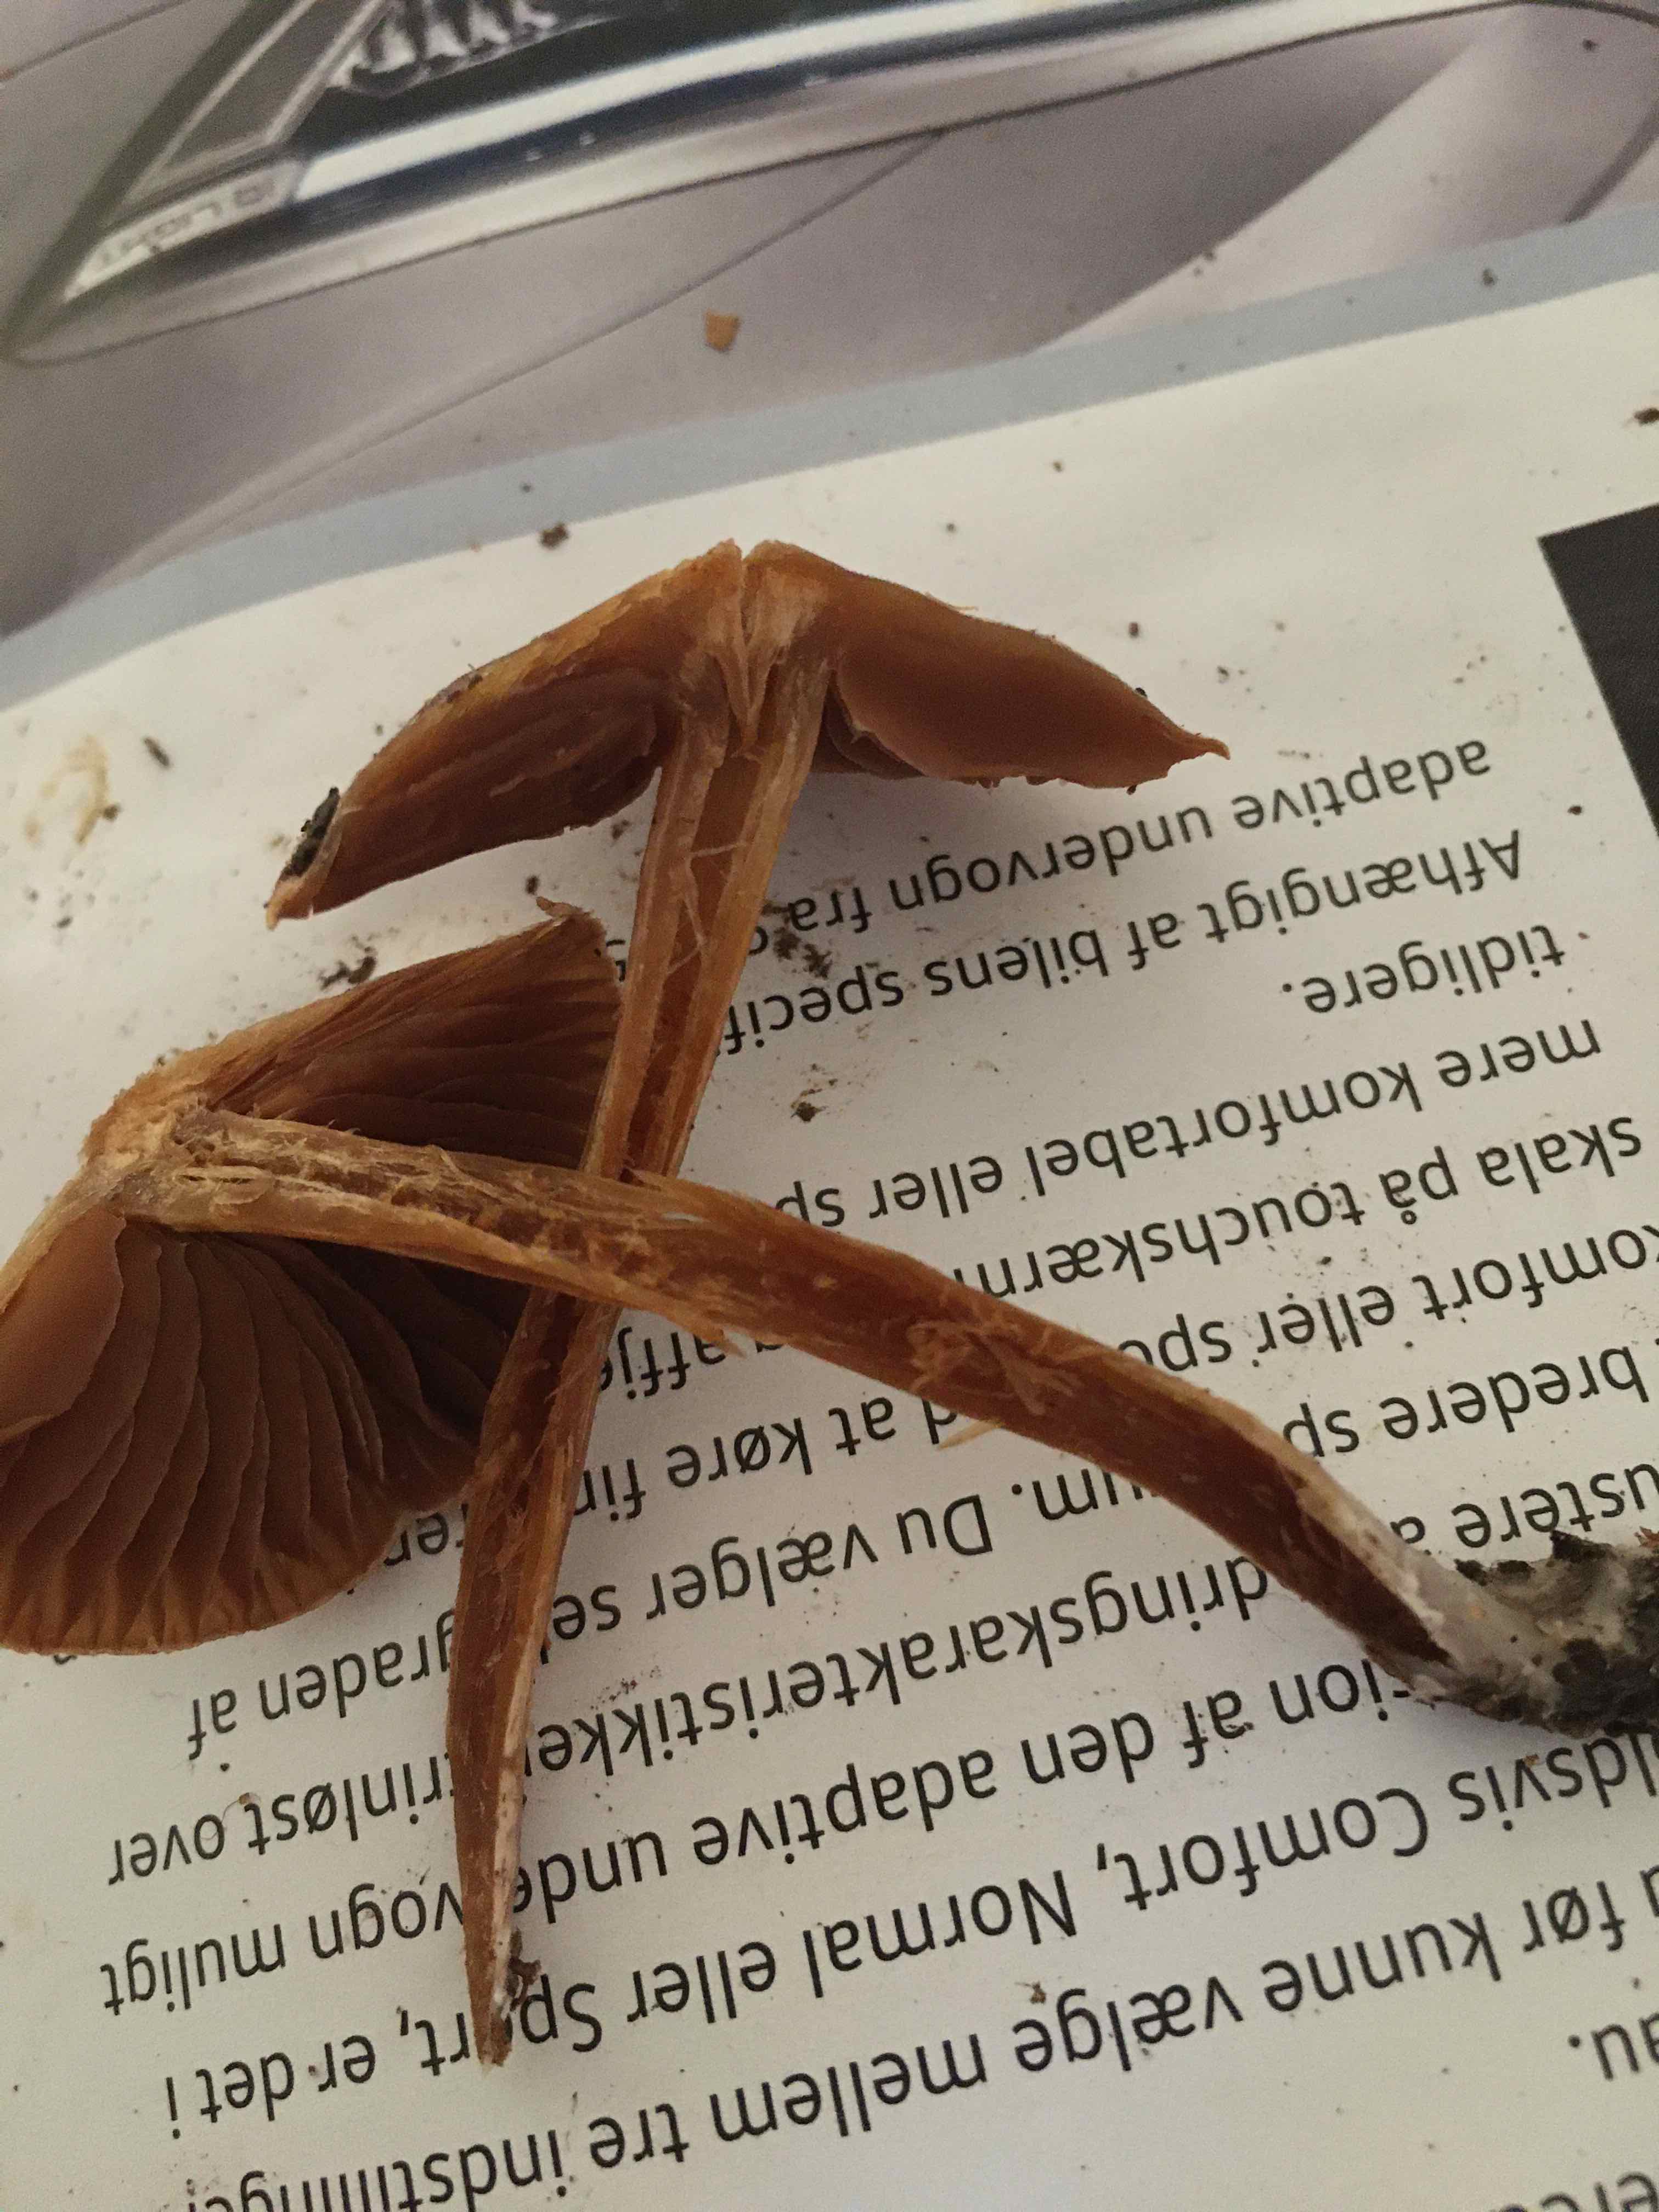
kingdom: Fungi
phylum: Basidiomycota
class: Agaricomycetes
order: Agaricales
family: Cortinariaceae
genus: Cortinarius
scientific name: Cortinarius geraniolens
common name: geranium-slørhat
